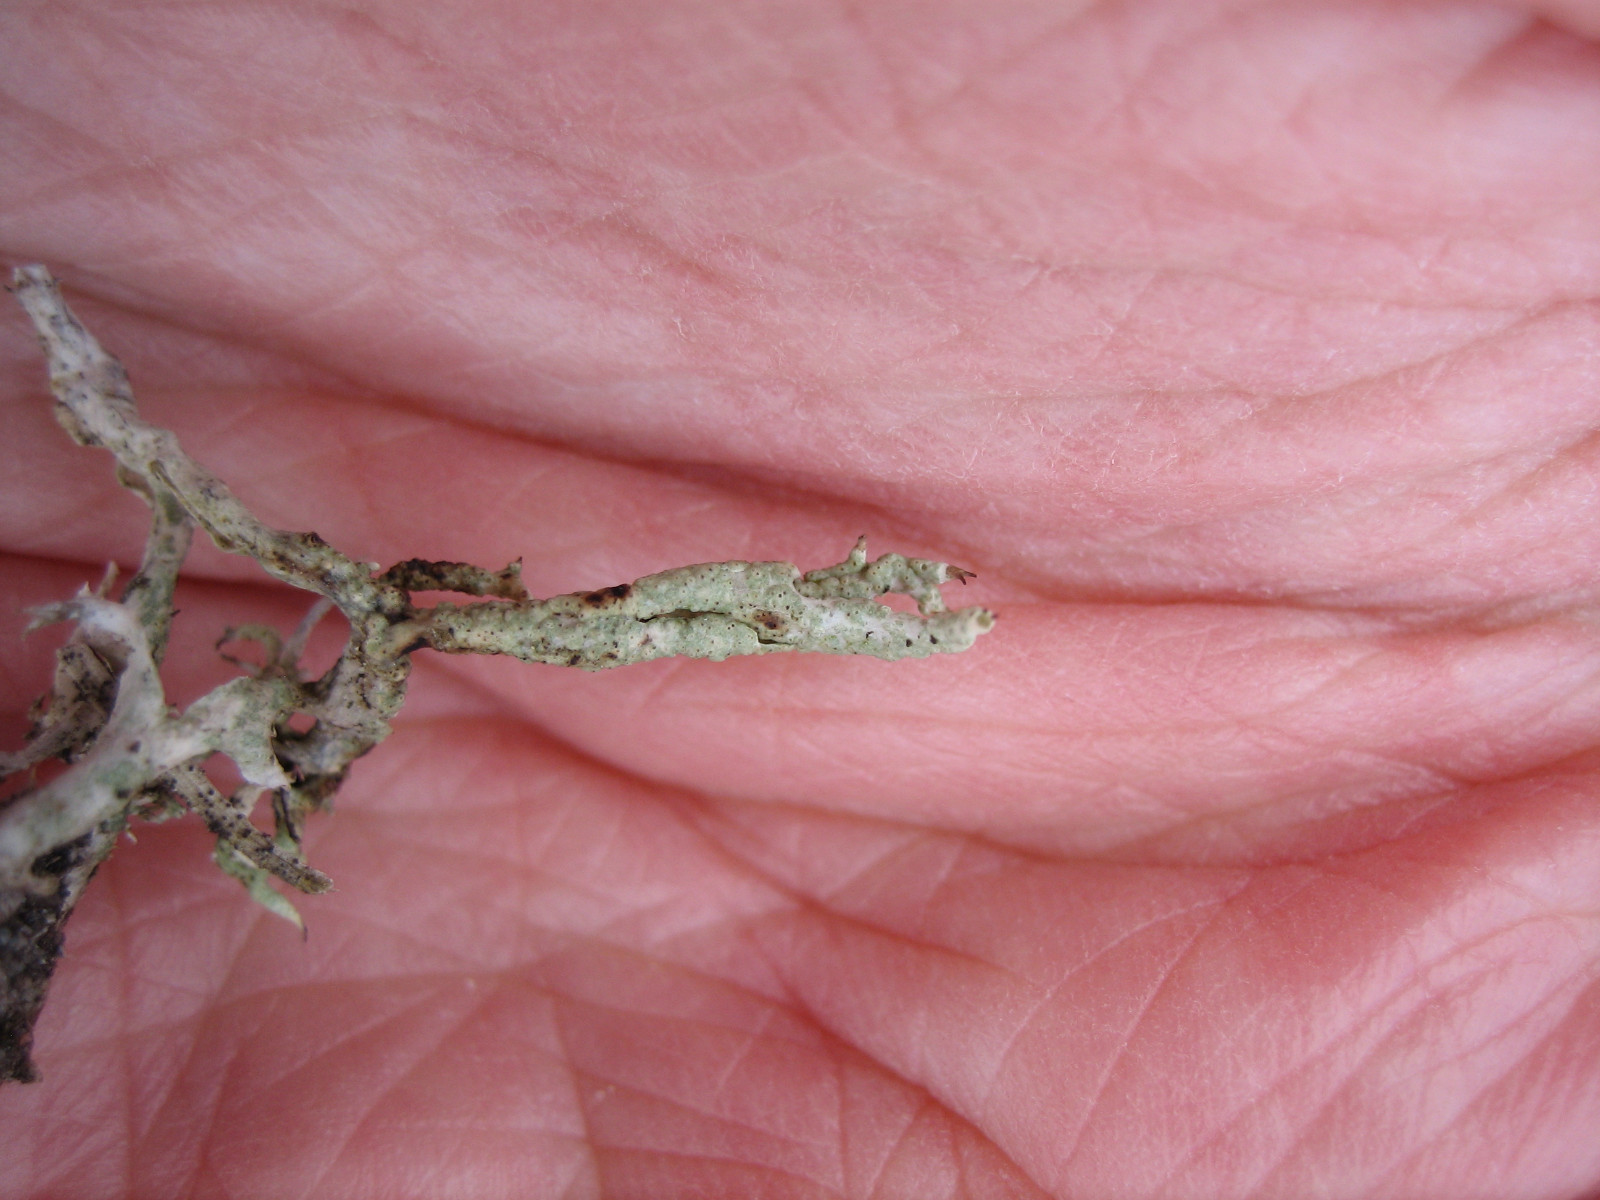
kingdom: Fungi
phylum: Ascomycota
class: Lecanoromycetes
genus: Bachmanniomyces
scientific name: Bachmanniomyces uncialicola
